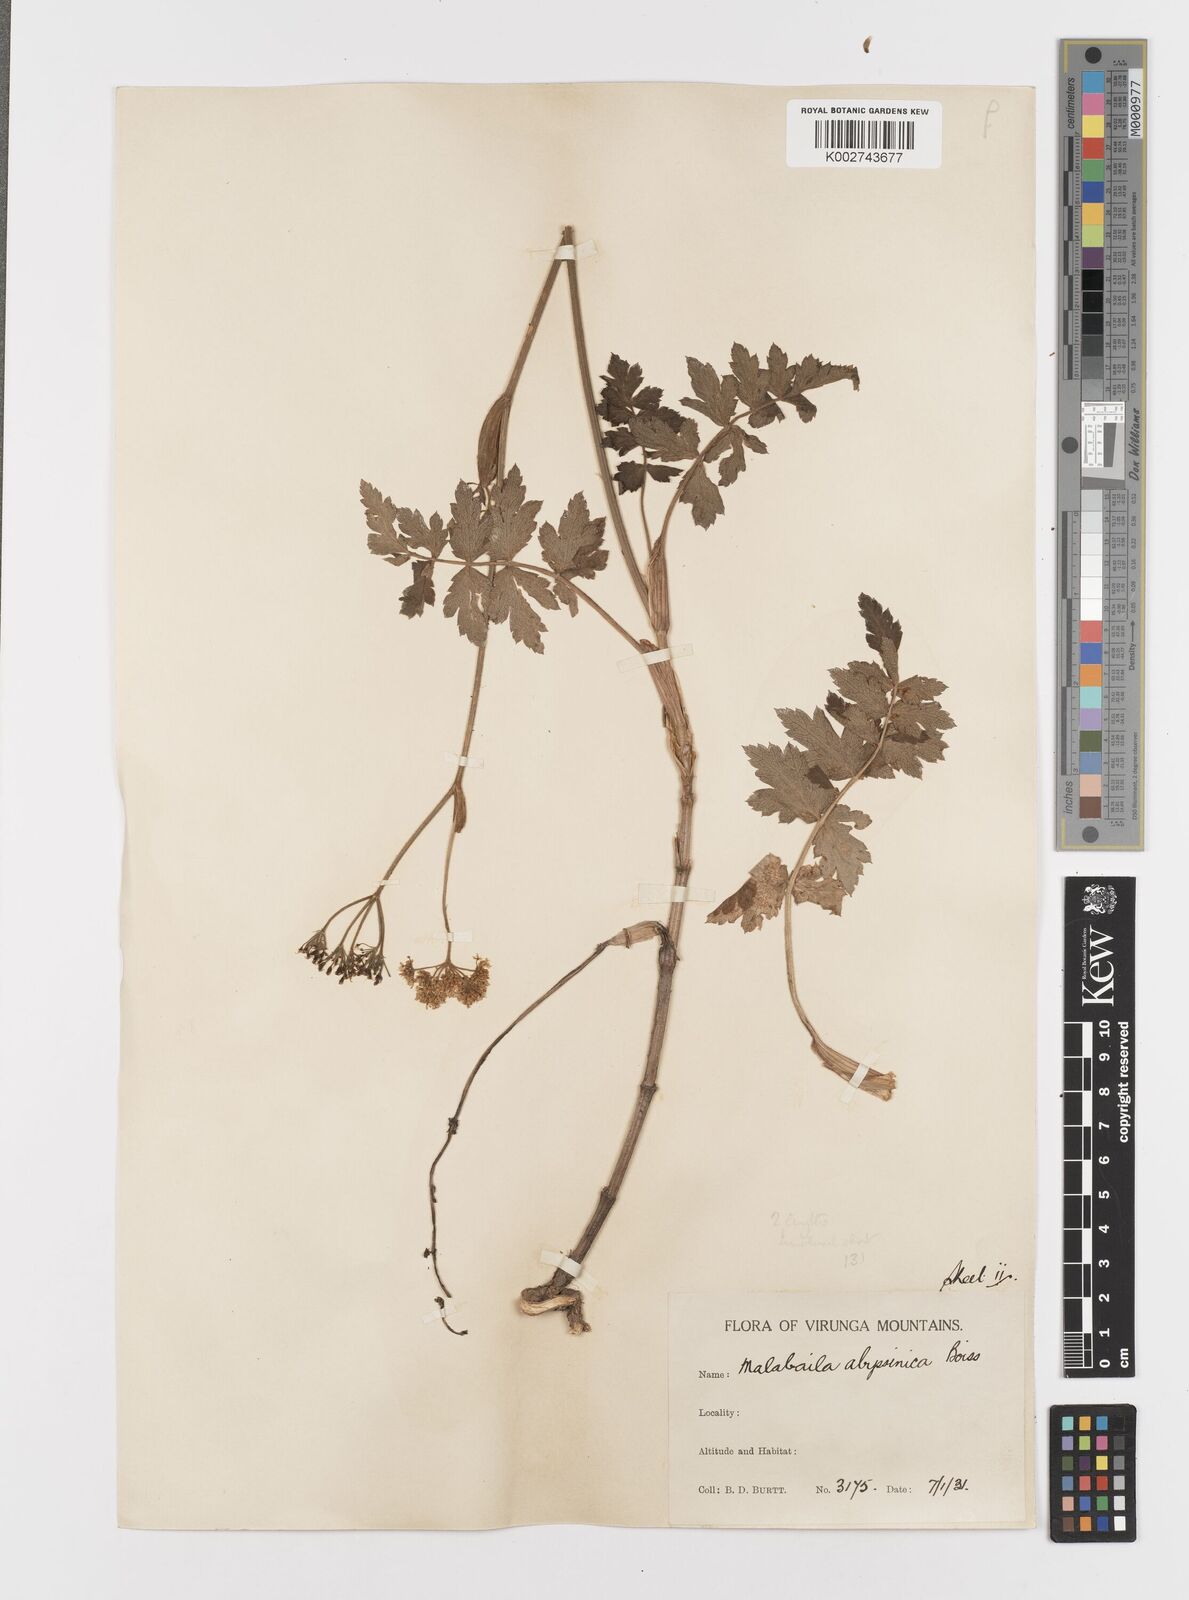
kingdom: Plantae
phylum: Tracheophyta
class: Magnoliopsida
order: Apiales
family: Apiaceae
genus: Heracleum
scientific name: Heracleum abyssinicum
